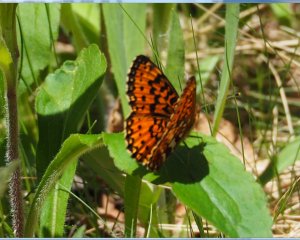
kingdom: Animalia
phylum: Arthropoda
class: Insecta
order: Lepidoptera
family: Nymphalidae
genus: Boloria
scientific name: Boloria selene
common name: Silver-bordered Fritillary
